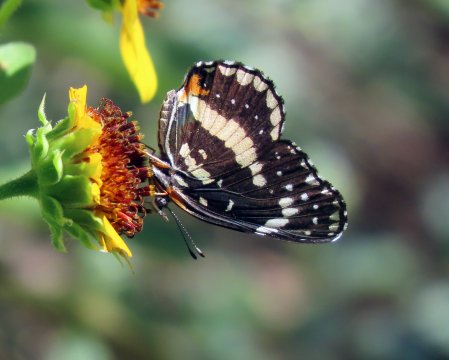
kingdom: Animalia
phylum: Arthropoda
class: Insecta
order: Lepidoptera
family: Nymphalidae
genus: Chlosyne
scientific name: Chlosyne lacinia
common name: Bordered Patch
